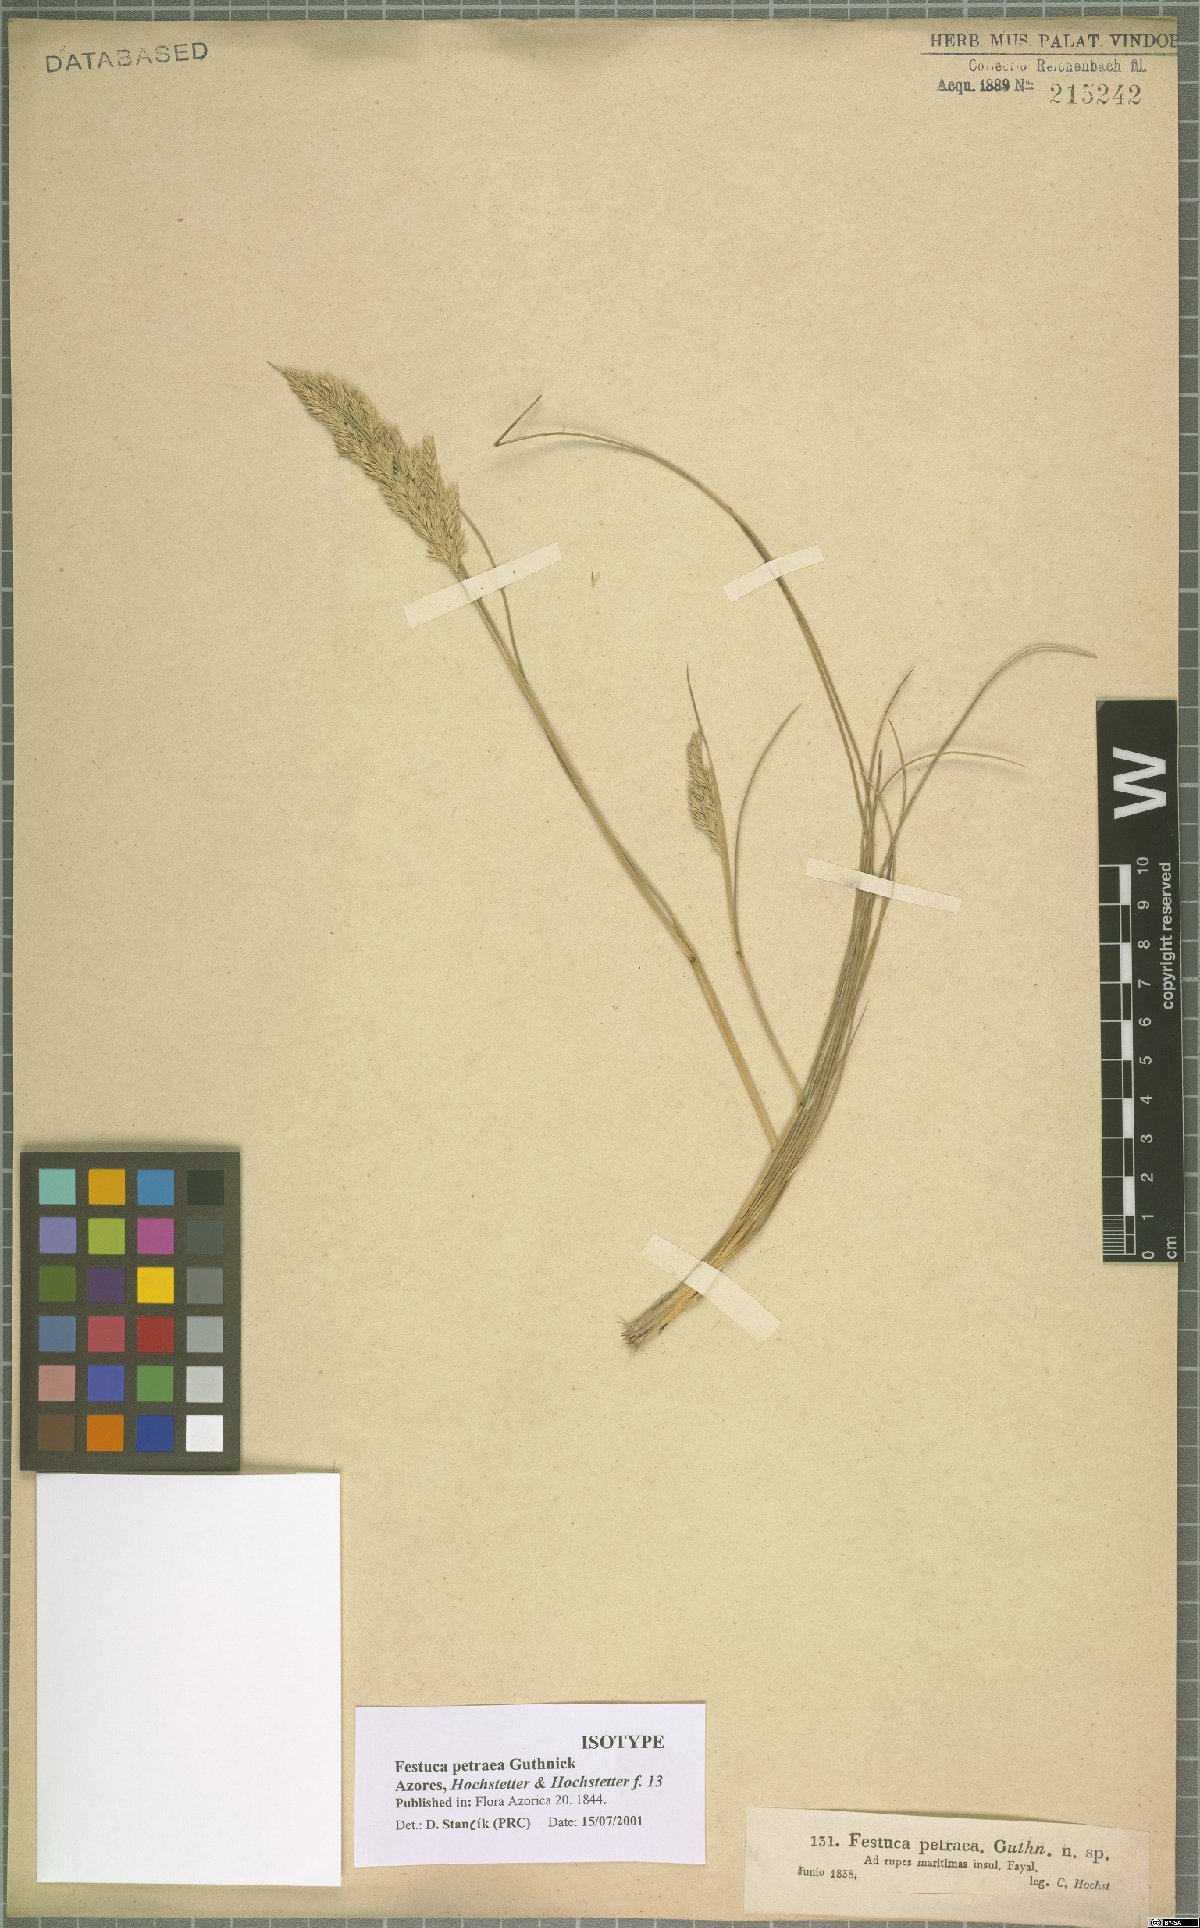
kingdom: Plantae
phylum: Tracheophyta
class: Liliopsida
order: Poales
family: Poaceae
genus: Festuca
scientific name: Festuca petraea
